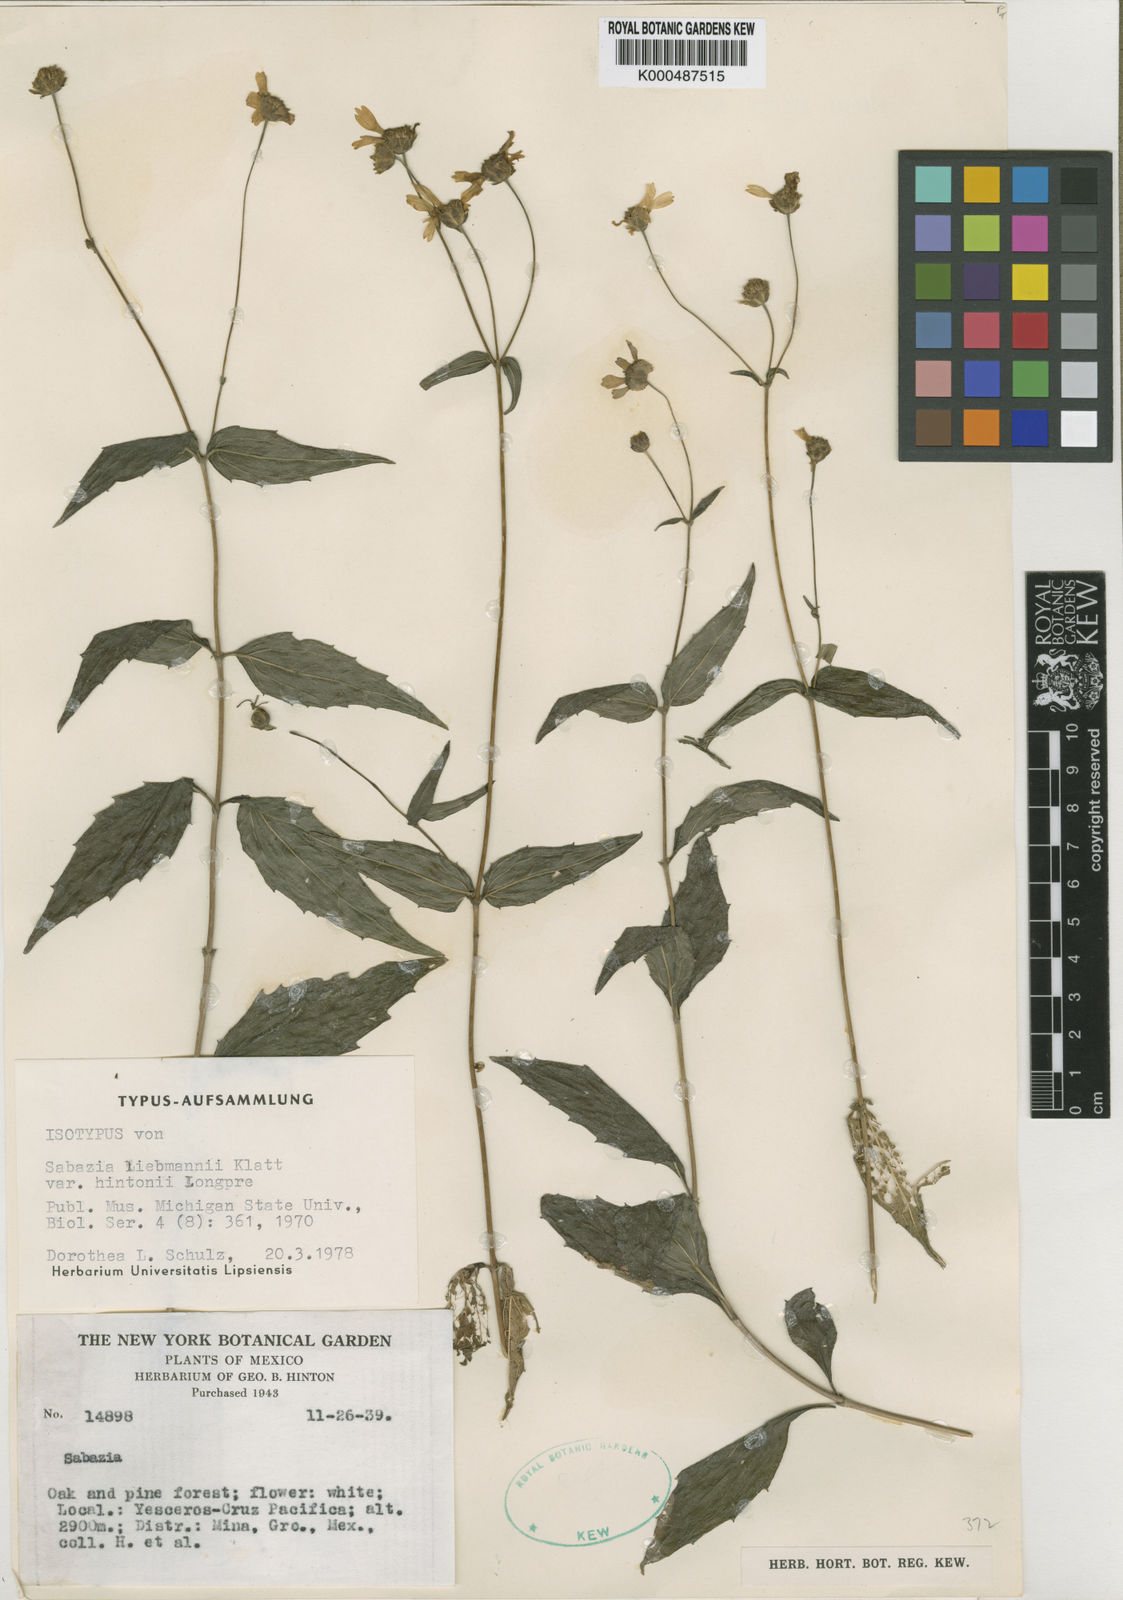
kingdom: Plantae
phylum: Tracheophyta
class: Magnoliopsida
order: Asterales
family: Asteraceae
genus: Alloispermum
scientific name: Alloispermum michoacanum
